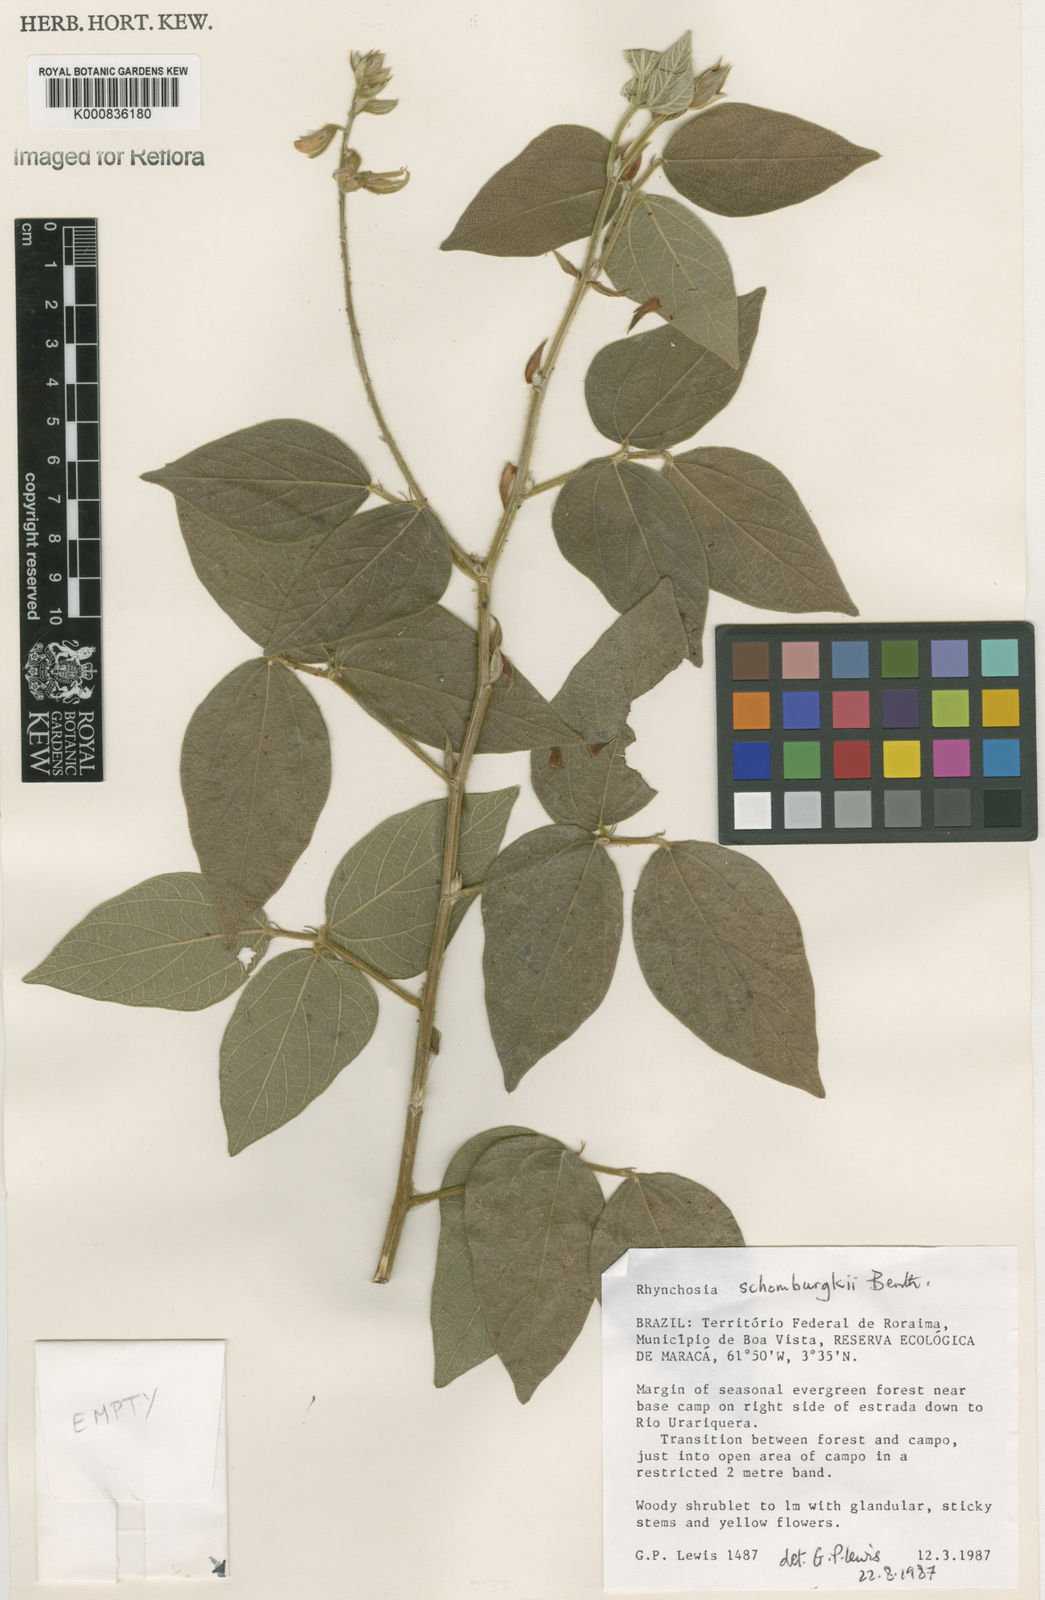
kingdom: Plantae
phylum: Tracheophyta
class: Magnoliopsida
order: Fabales
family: Fabaceae
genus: Rhynchosia
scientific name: Rhynchosia schomburgkii
